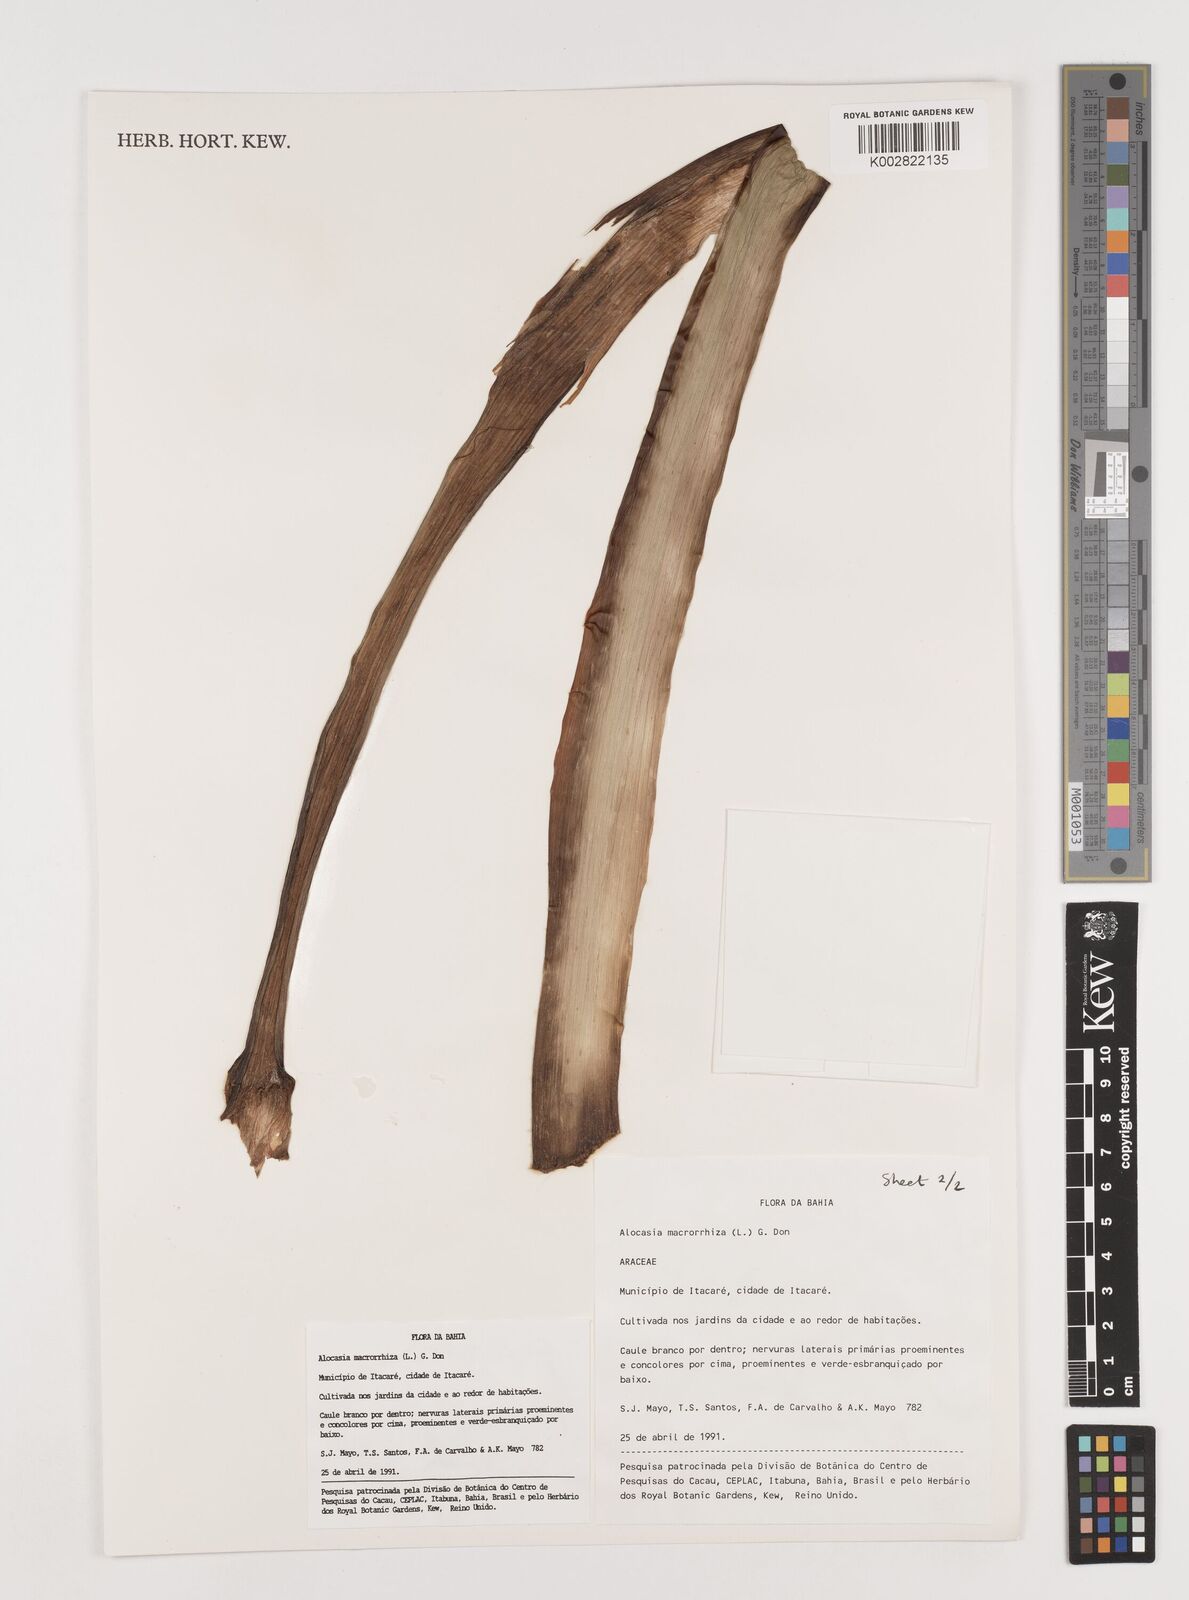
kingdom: Plantae
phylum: Tracheophyta
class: Liliopsida
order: Alismatales
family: Araceae
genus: Alocasia
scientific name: Alocasia macrorrhizos
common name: Giant taro
